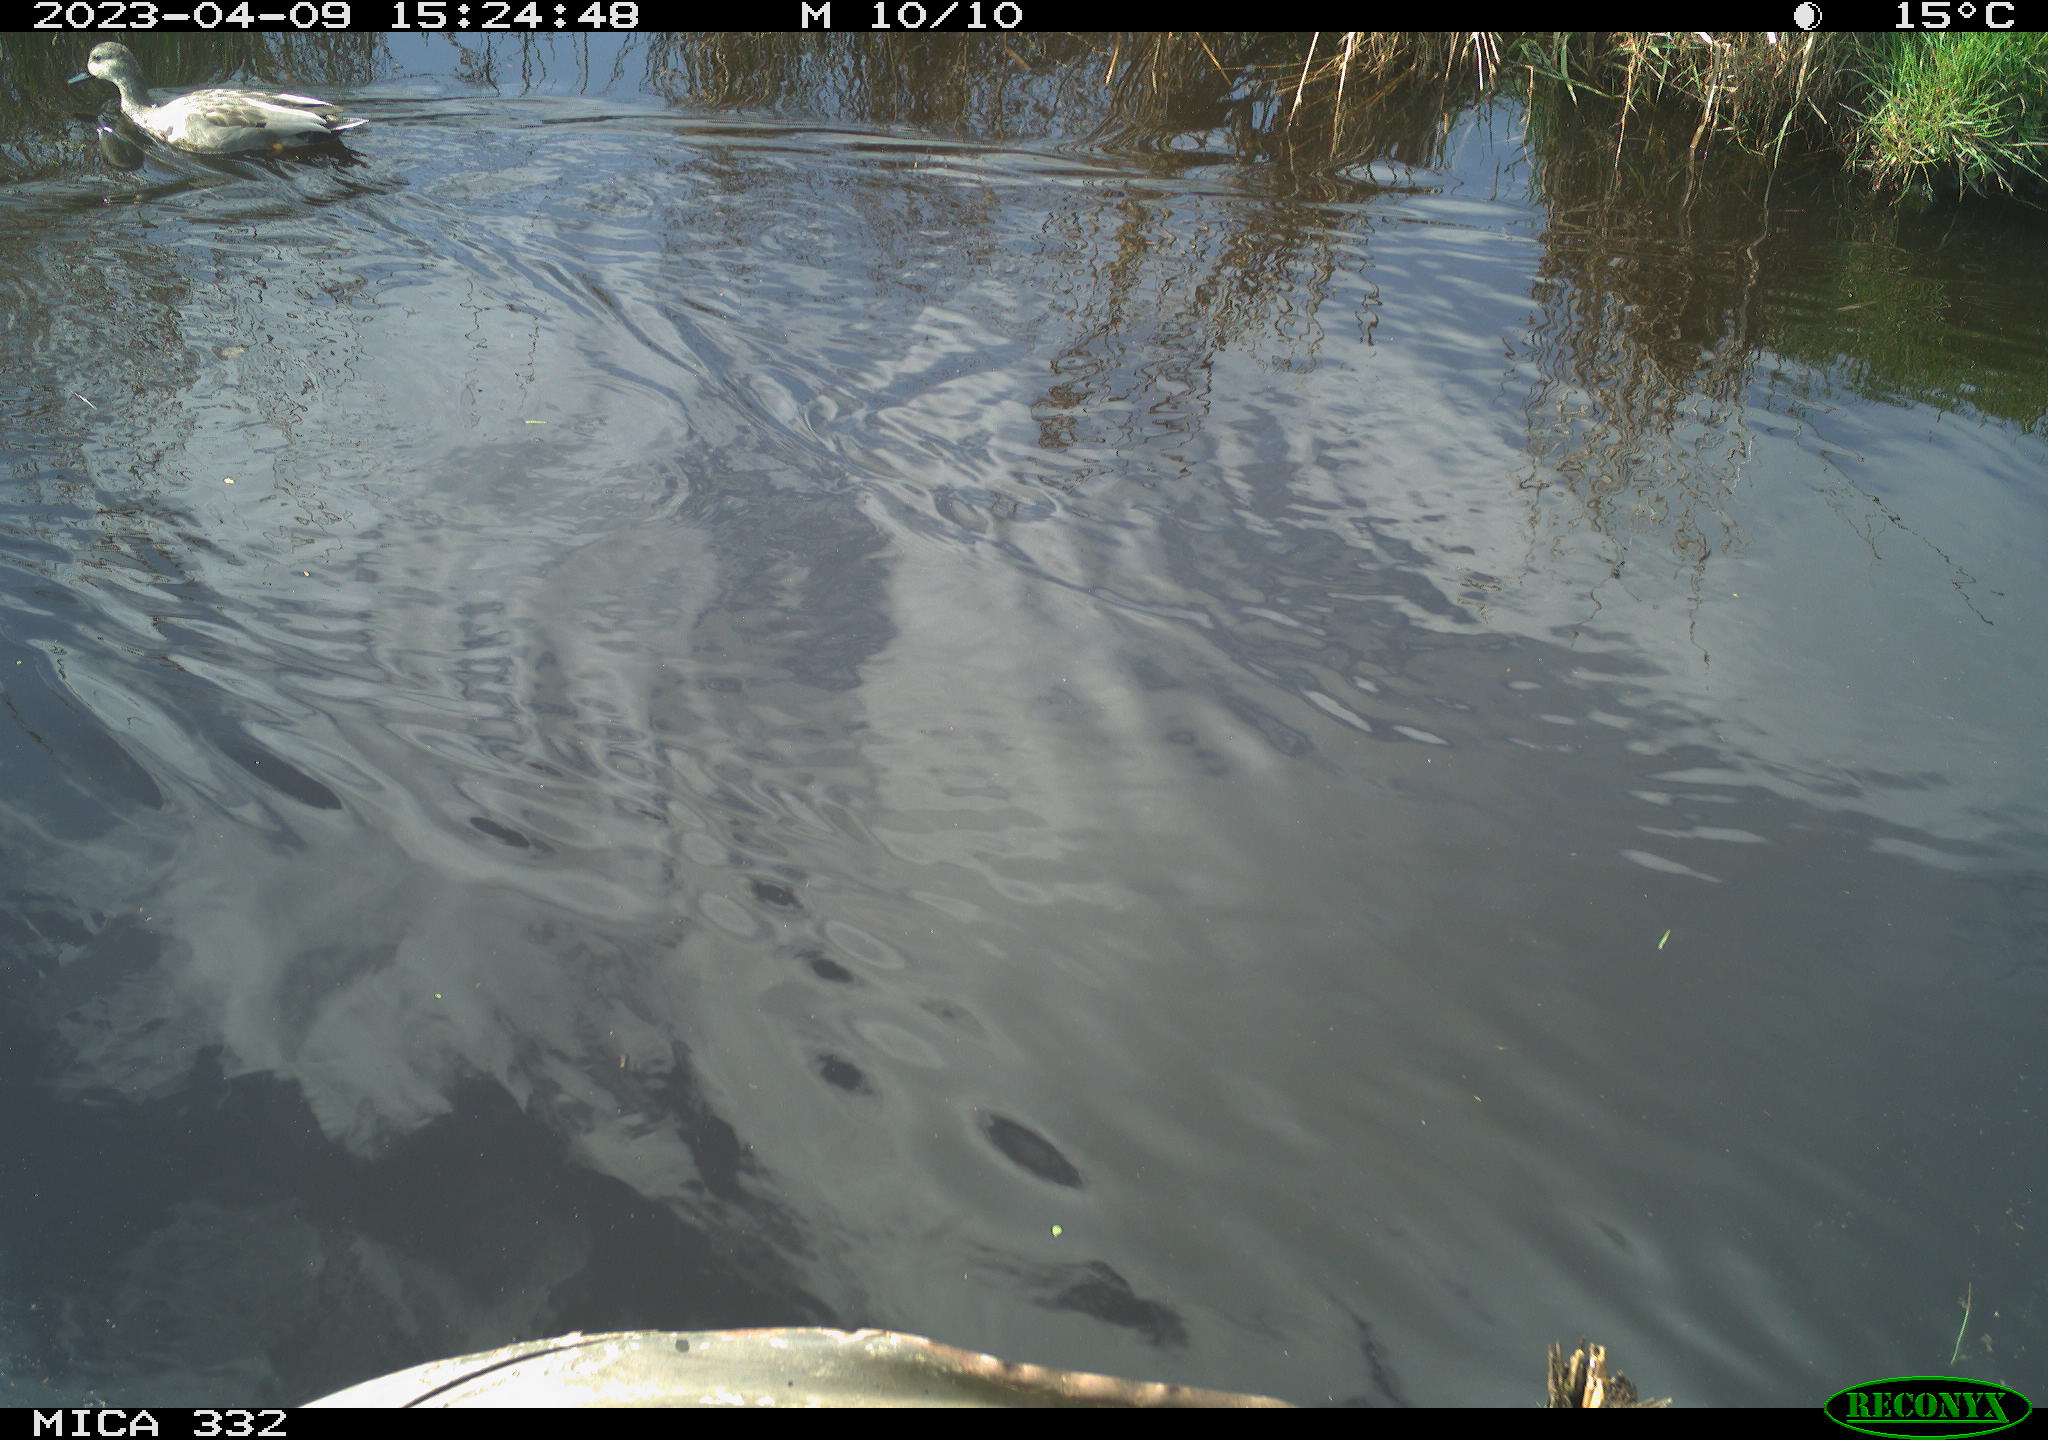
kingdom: Animalia
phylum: Chordata
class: Aves
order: Anseriformes
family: Anatidae
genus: Anas
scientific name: Anas platyrhynchos
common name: Mallard
